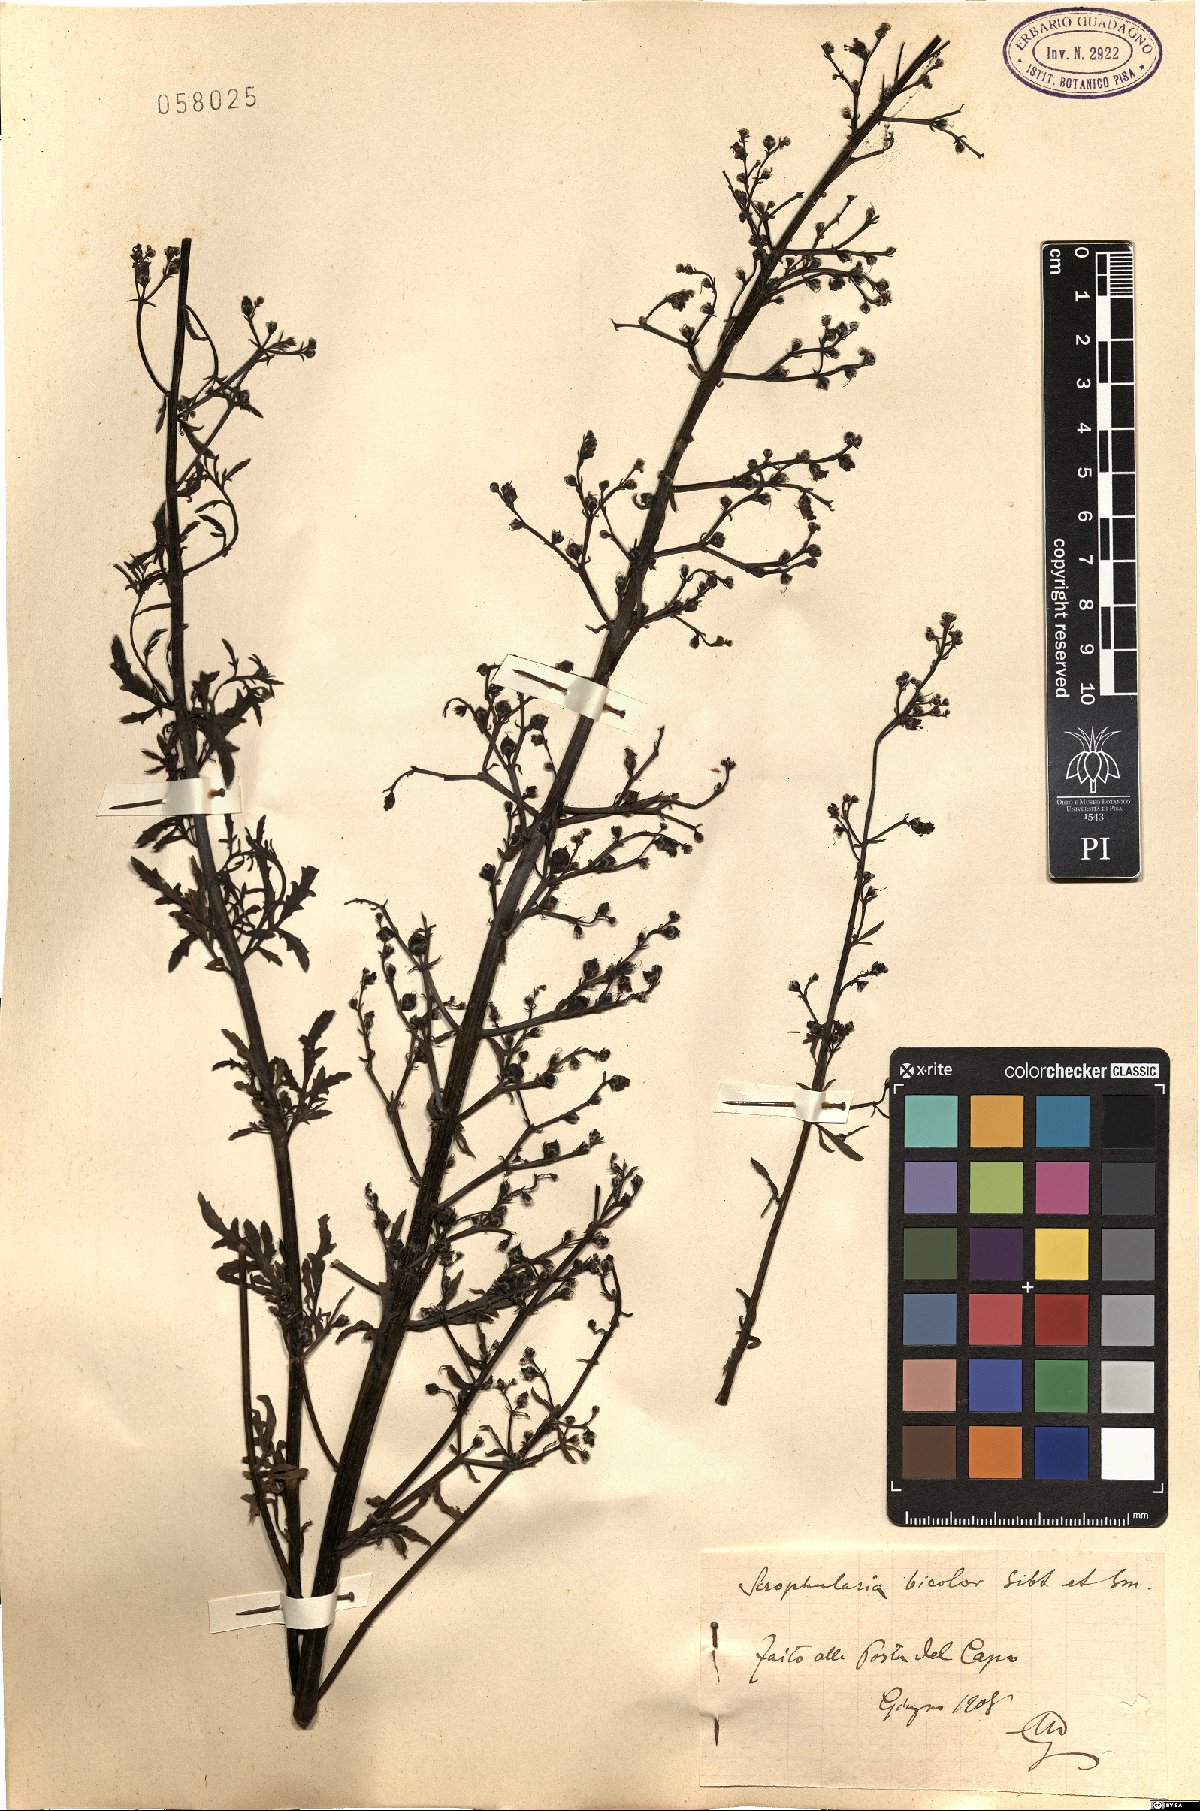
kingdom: Plantae
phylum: Tracheophyta
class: Magnoliopsida
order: Lamiales
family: Scrophulariaceae
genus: Scrophularia
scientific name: Scrophularia canina
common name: French figwort
